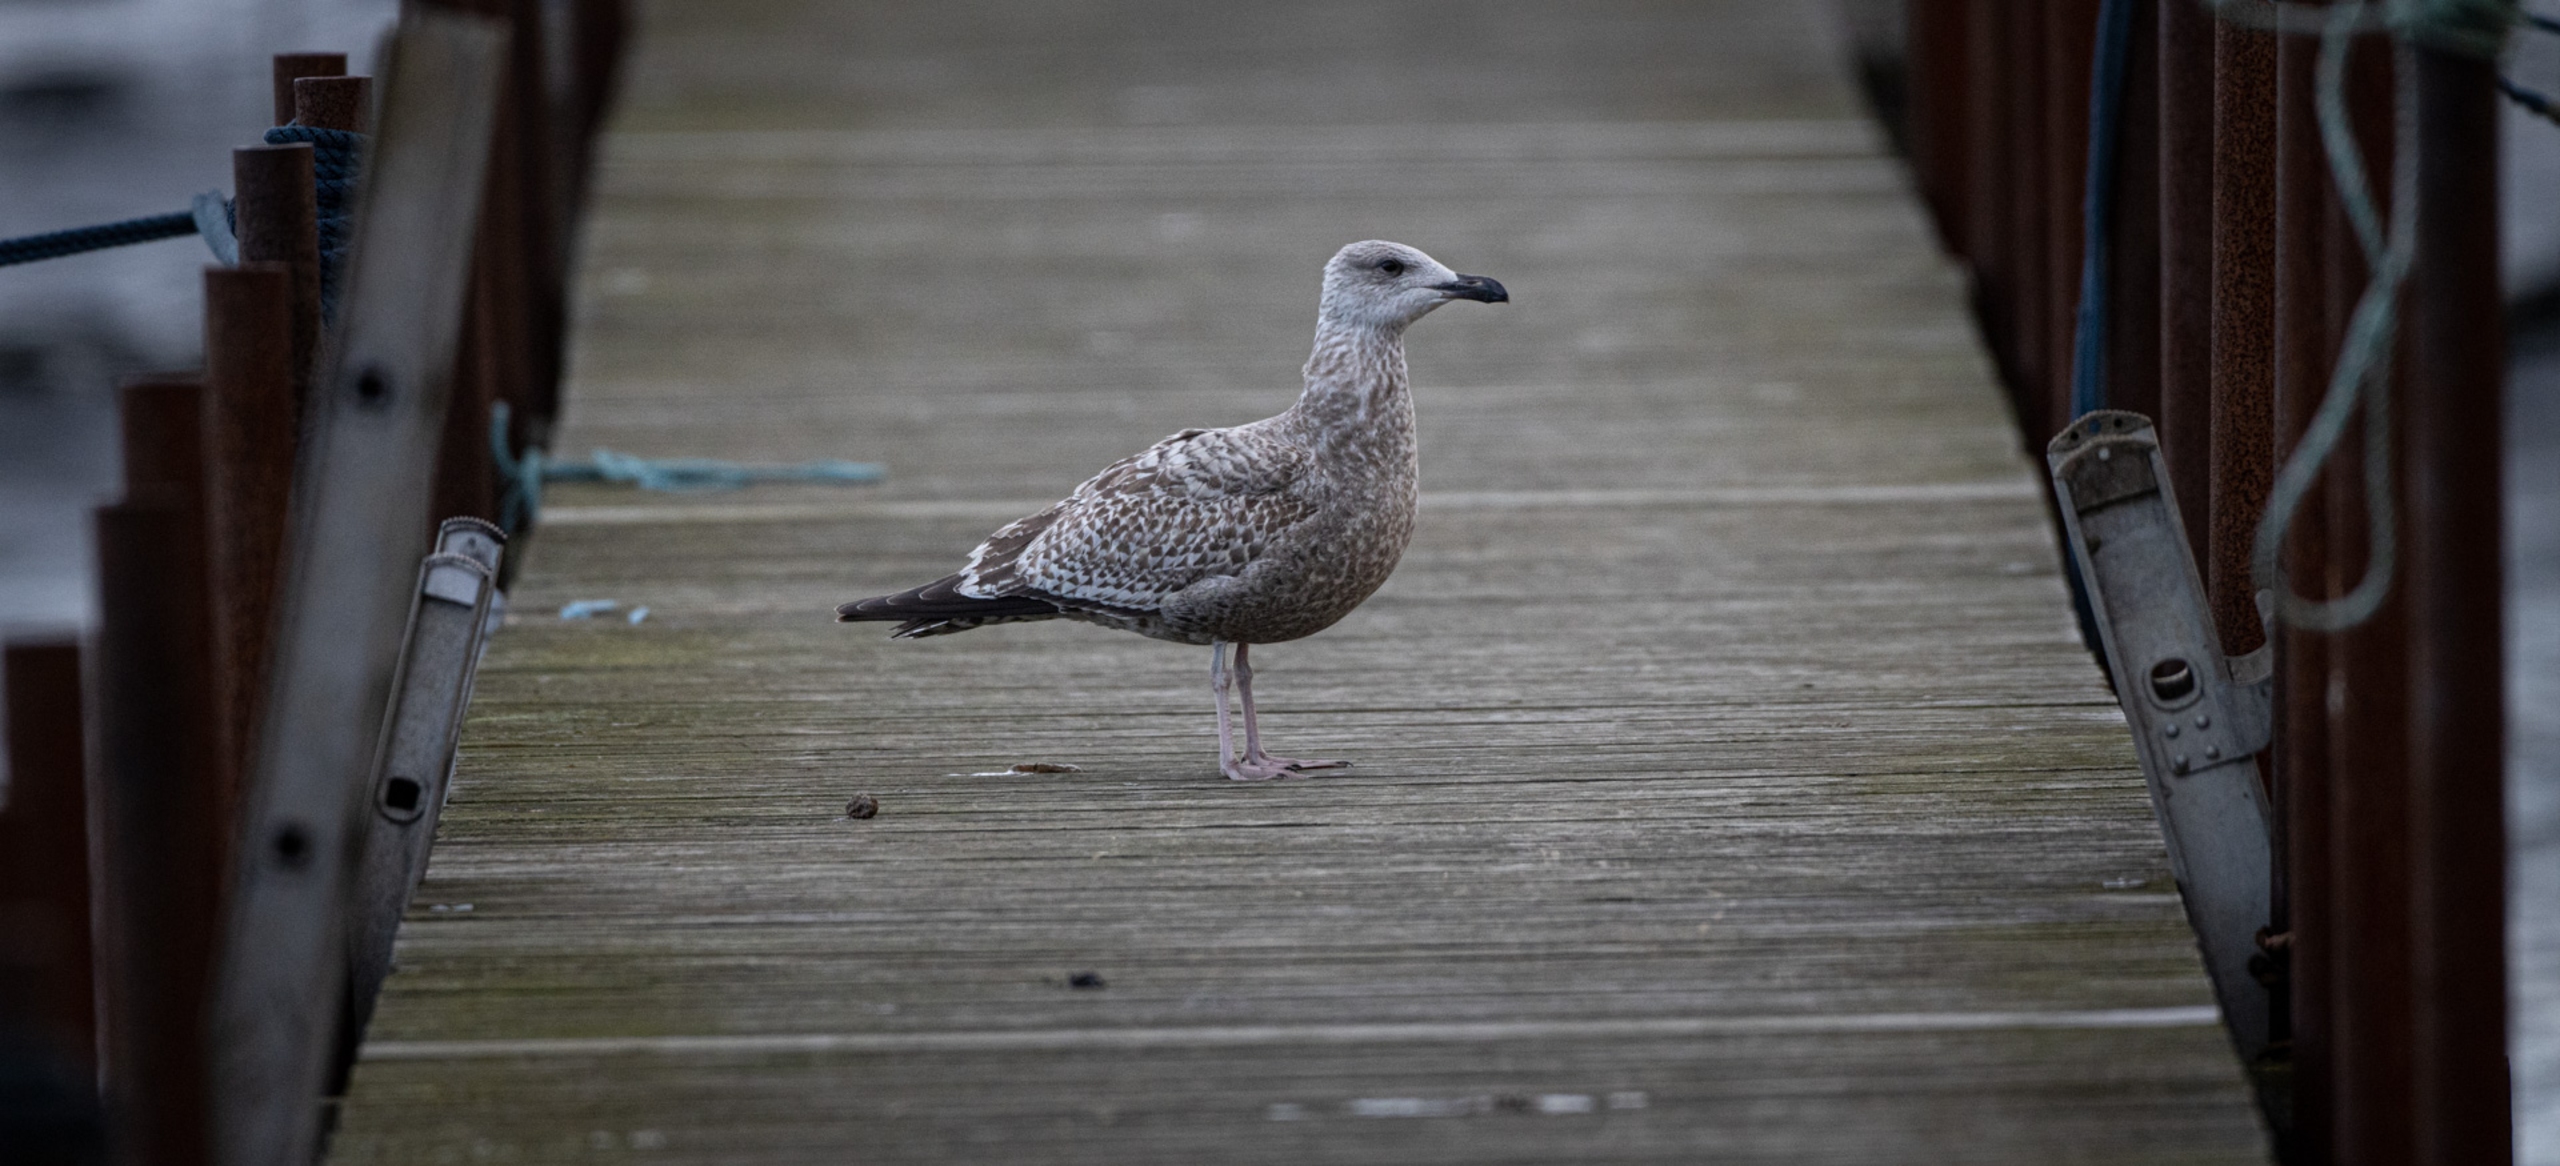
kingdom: Animalia
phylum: Chordata
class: Aves
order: Charadriiformes
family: Laridae
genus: Larus
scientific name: Larus argentatus
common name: Sølvmåge
